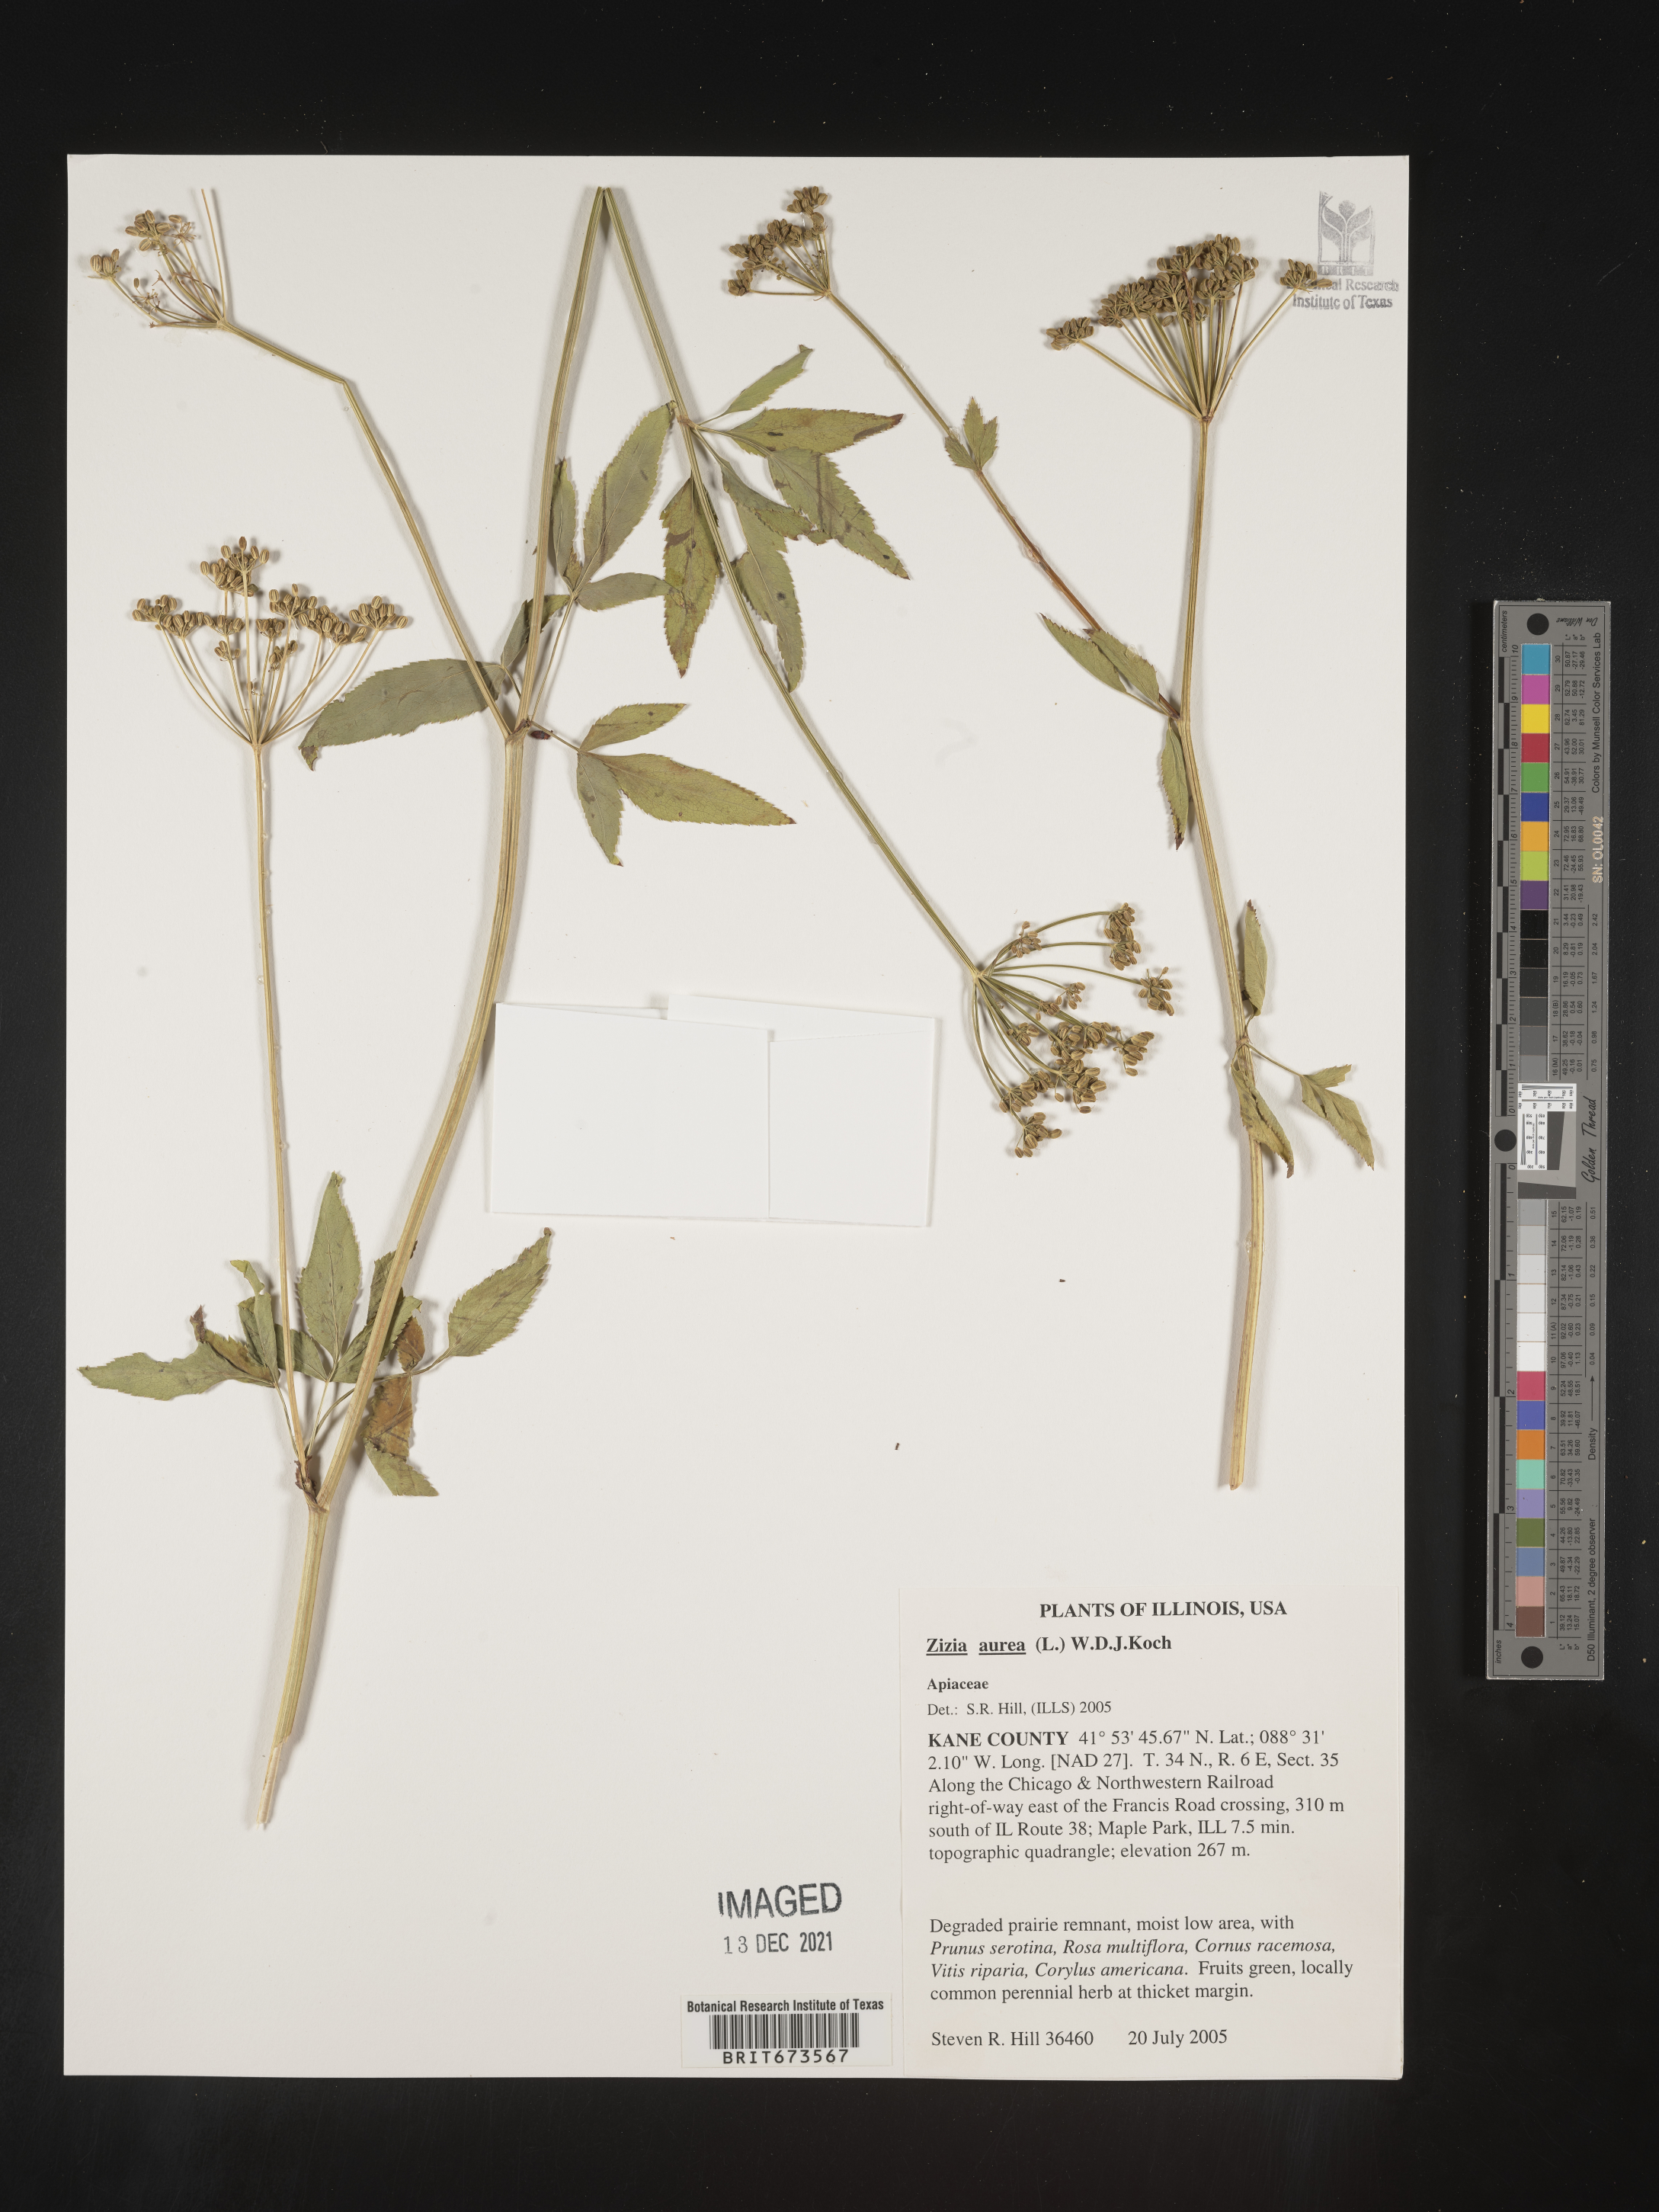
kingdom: Plantae
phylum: Tracheophyta
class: Magnoliopsida
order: Apiales
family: Apiaceae
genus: Zizia
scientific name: Zizia aurea
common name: Golden alexanders
